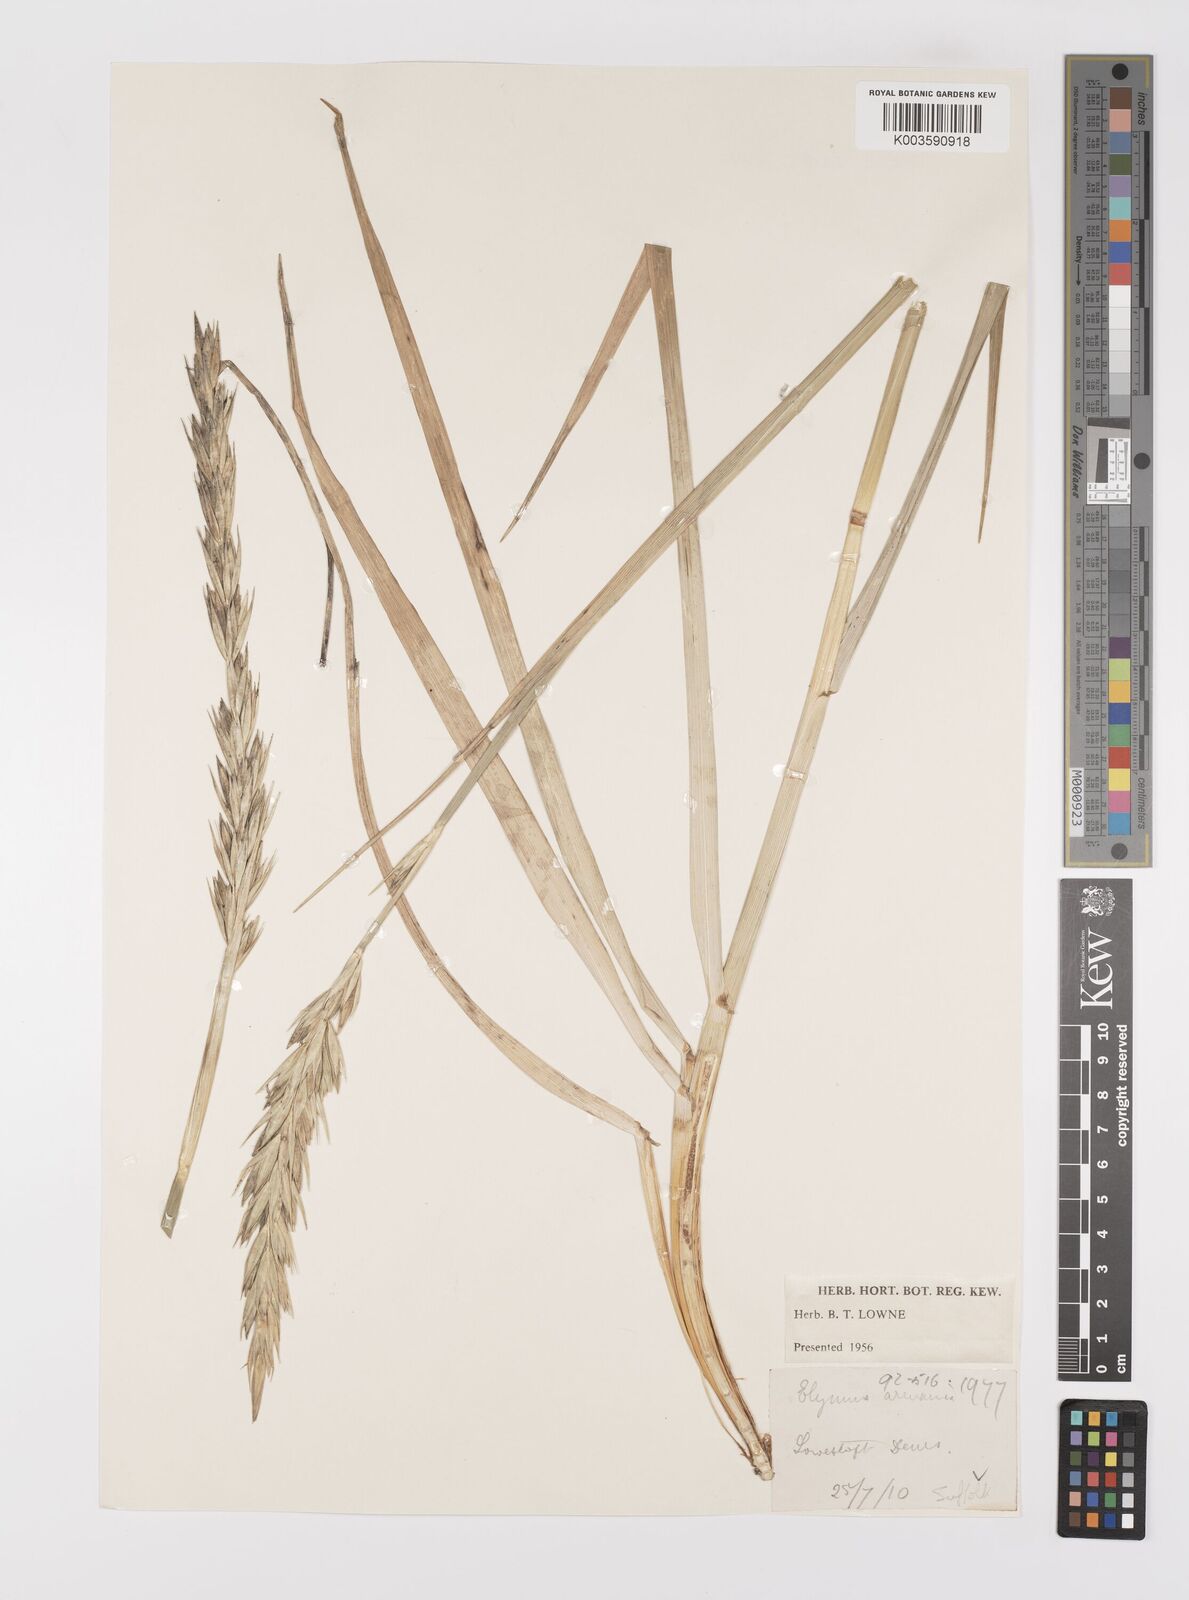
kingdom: Plantae
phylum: Tracheophyta
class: Liliopsida
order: Poales
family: Poaceae
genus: Leymus
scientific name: Leymus arenarius
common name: Lyme-grass
